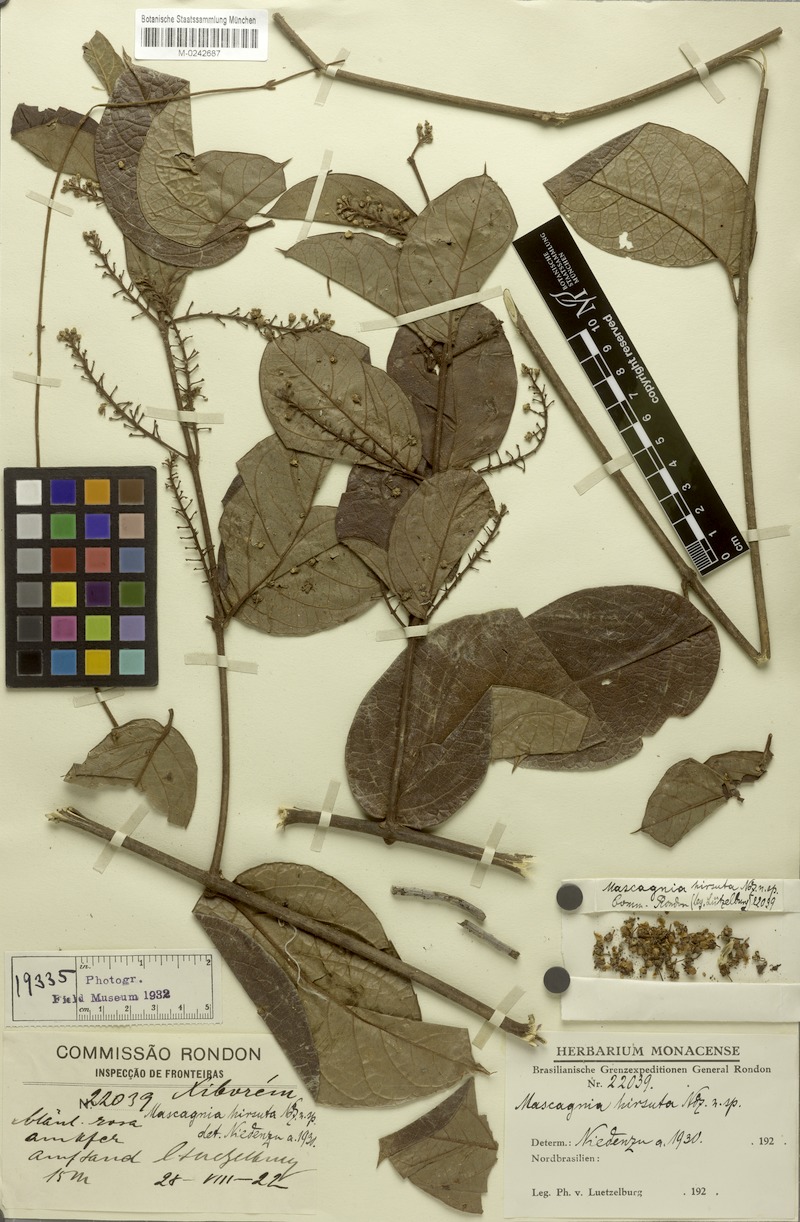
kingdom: Plantae
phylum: Tracheophyta
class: Magnoliopsida
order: Malpighiales
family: Malpighiaceae
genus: Mascagnia
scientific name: Mascagnia schunkei
